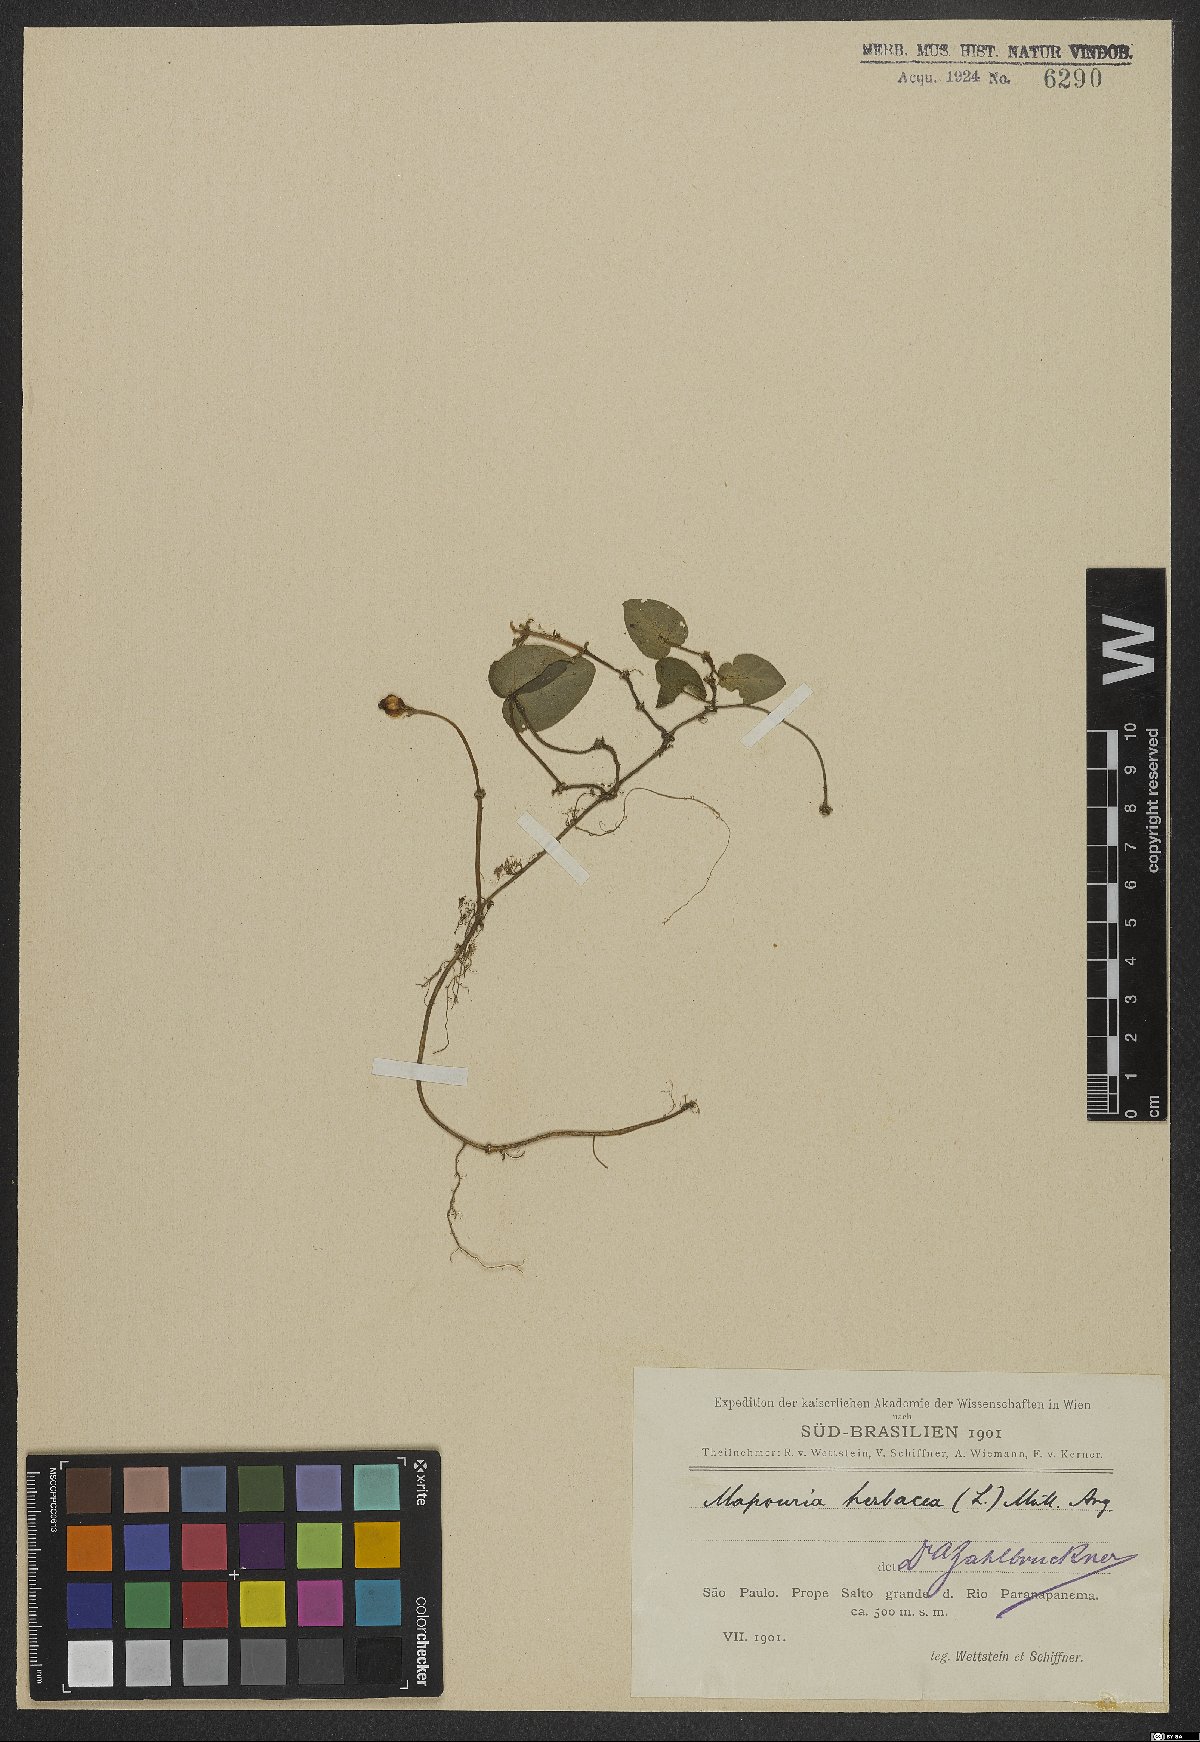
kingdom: Plantae
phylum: Tracheophyta
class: Magnoliopsida
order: Gentianales
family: Rubiaceae
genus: Geophila
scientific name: Geophila
